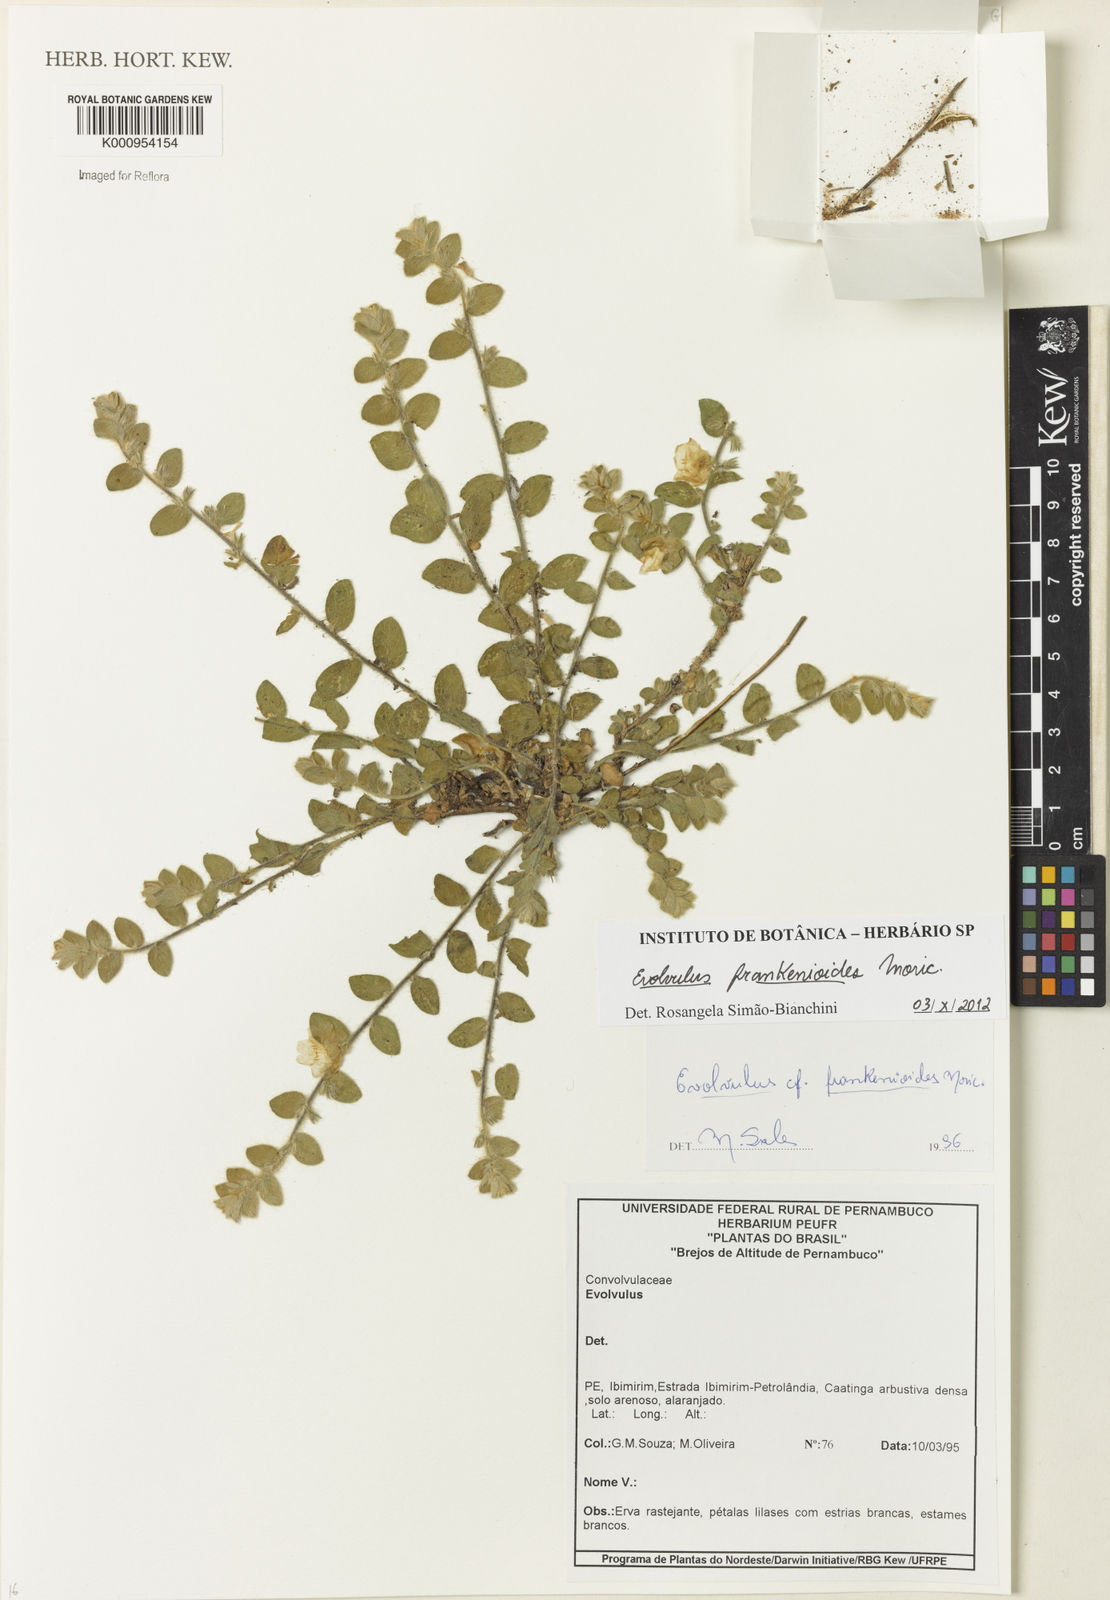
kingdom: Plantae
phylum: Tracheophyta
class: Magnoliopsida
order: Solanales
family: Convolvulaceae
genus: Evolvulus
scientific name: Evolvulus frankenioides
